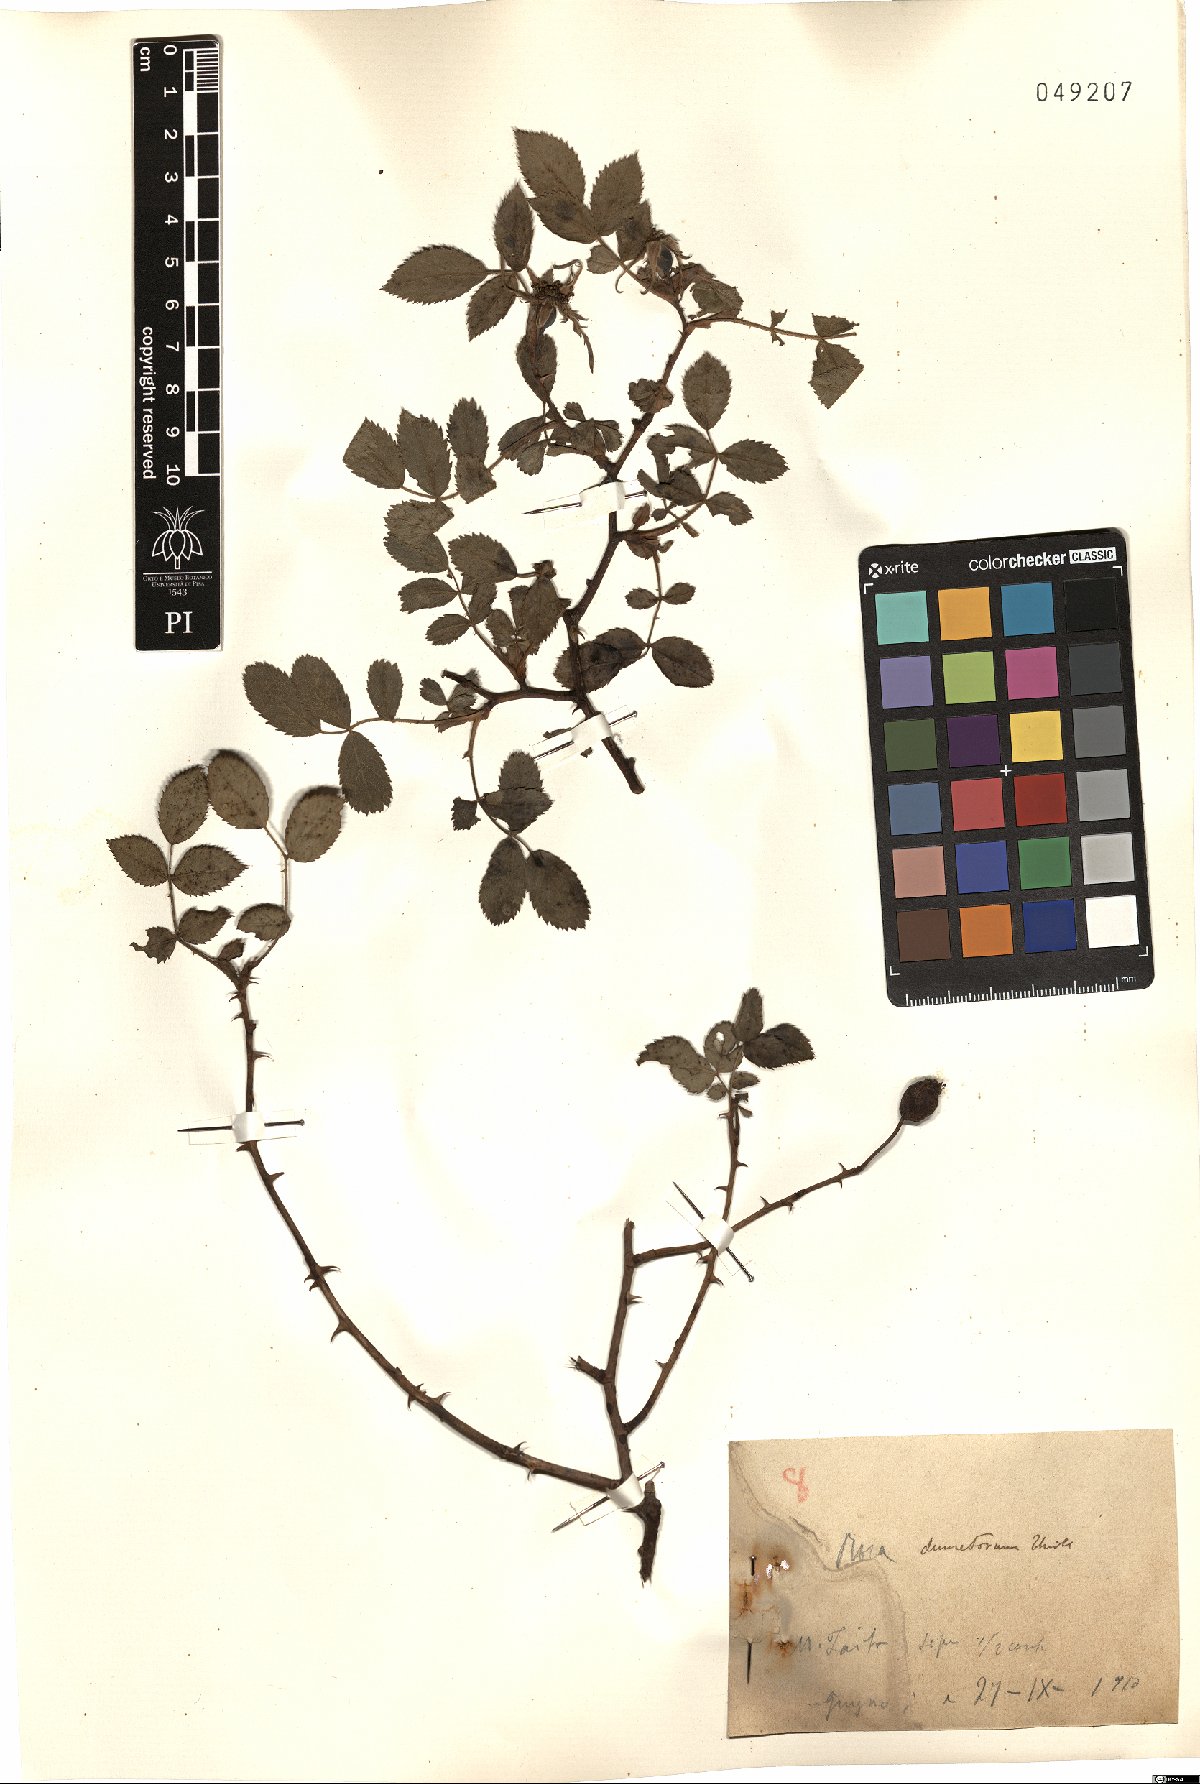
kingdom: Plantae
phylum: Tracheophyta
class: Magnoliopsida
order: Rosales
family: Rosaceae
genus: Rosa
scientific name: Rosa corymbifera
